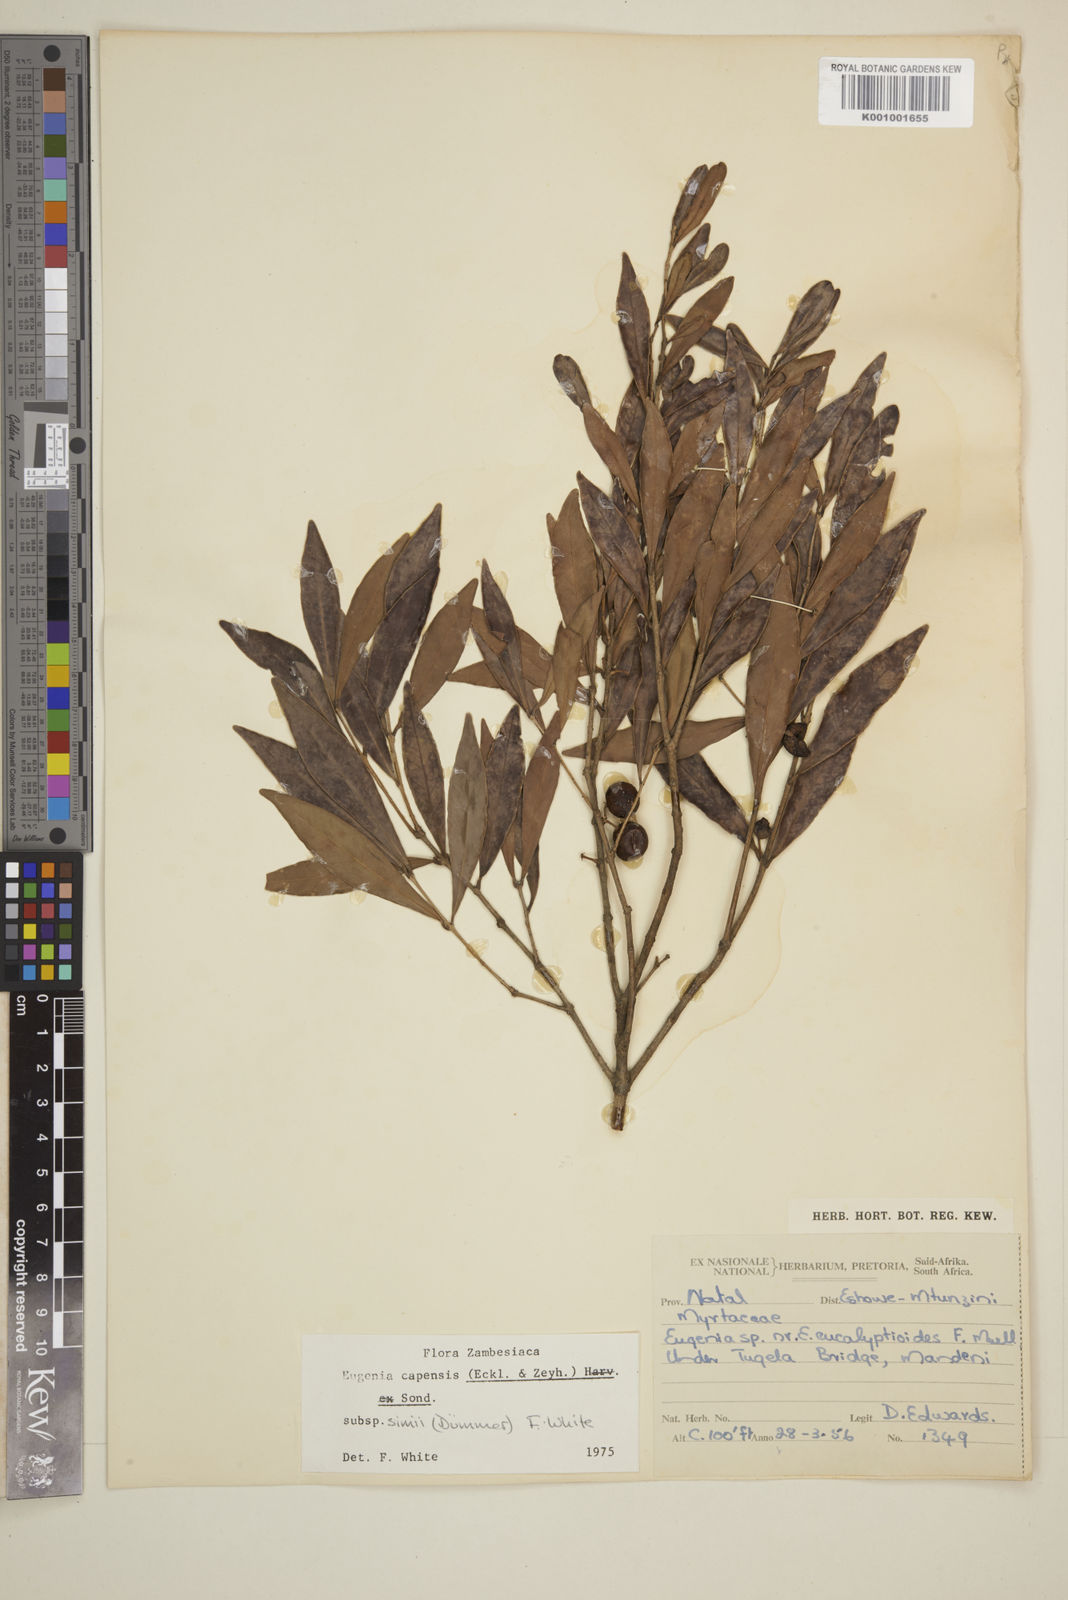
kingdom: Plantae
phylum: Tracheophyta
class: Magnoliopsida
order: Myrtales
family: Myrtaceae
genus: Eugenia
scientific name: Eugenia simii
